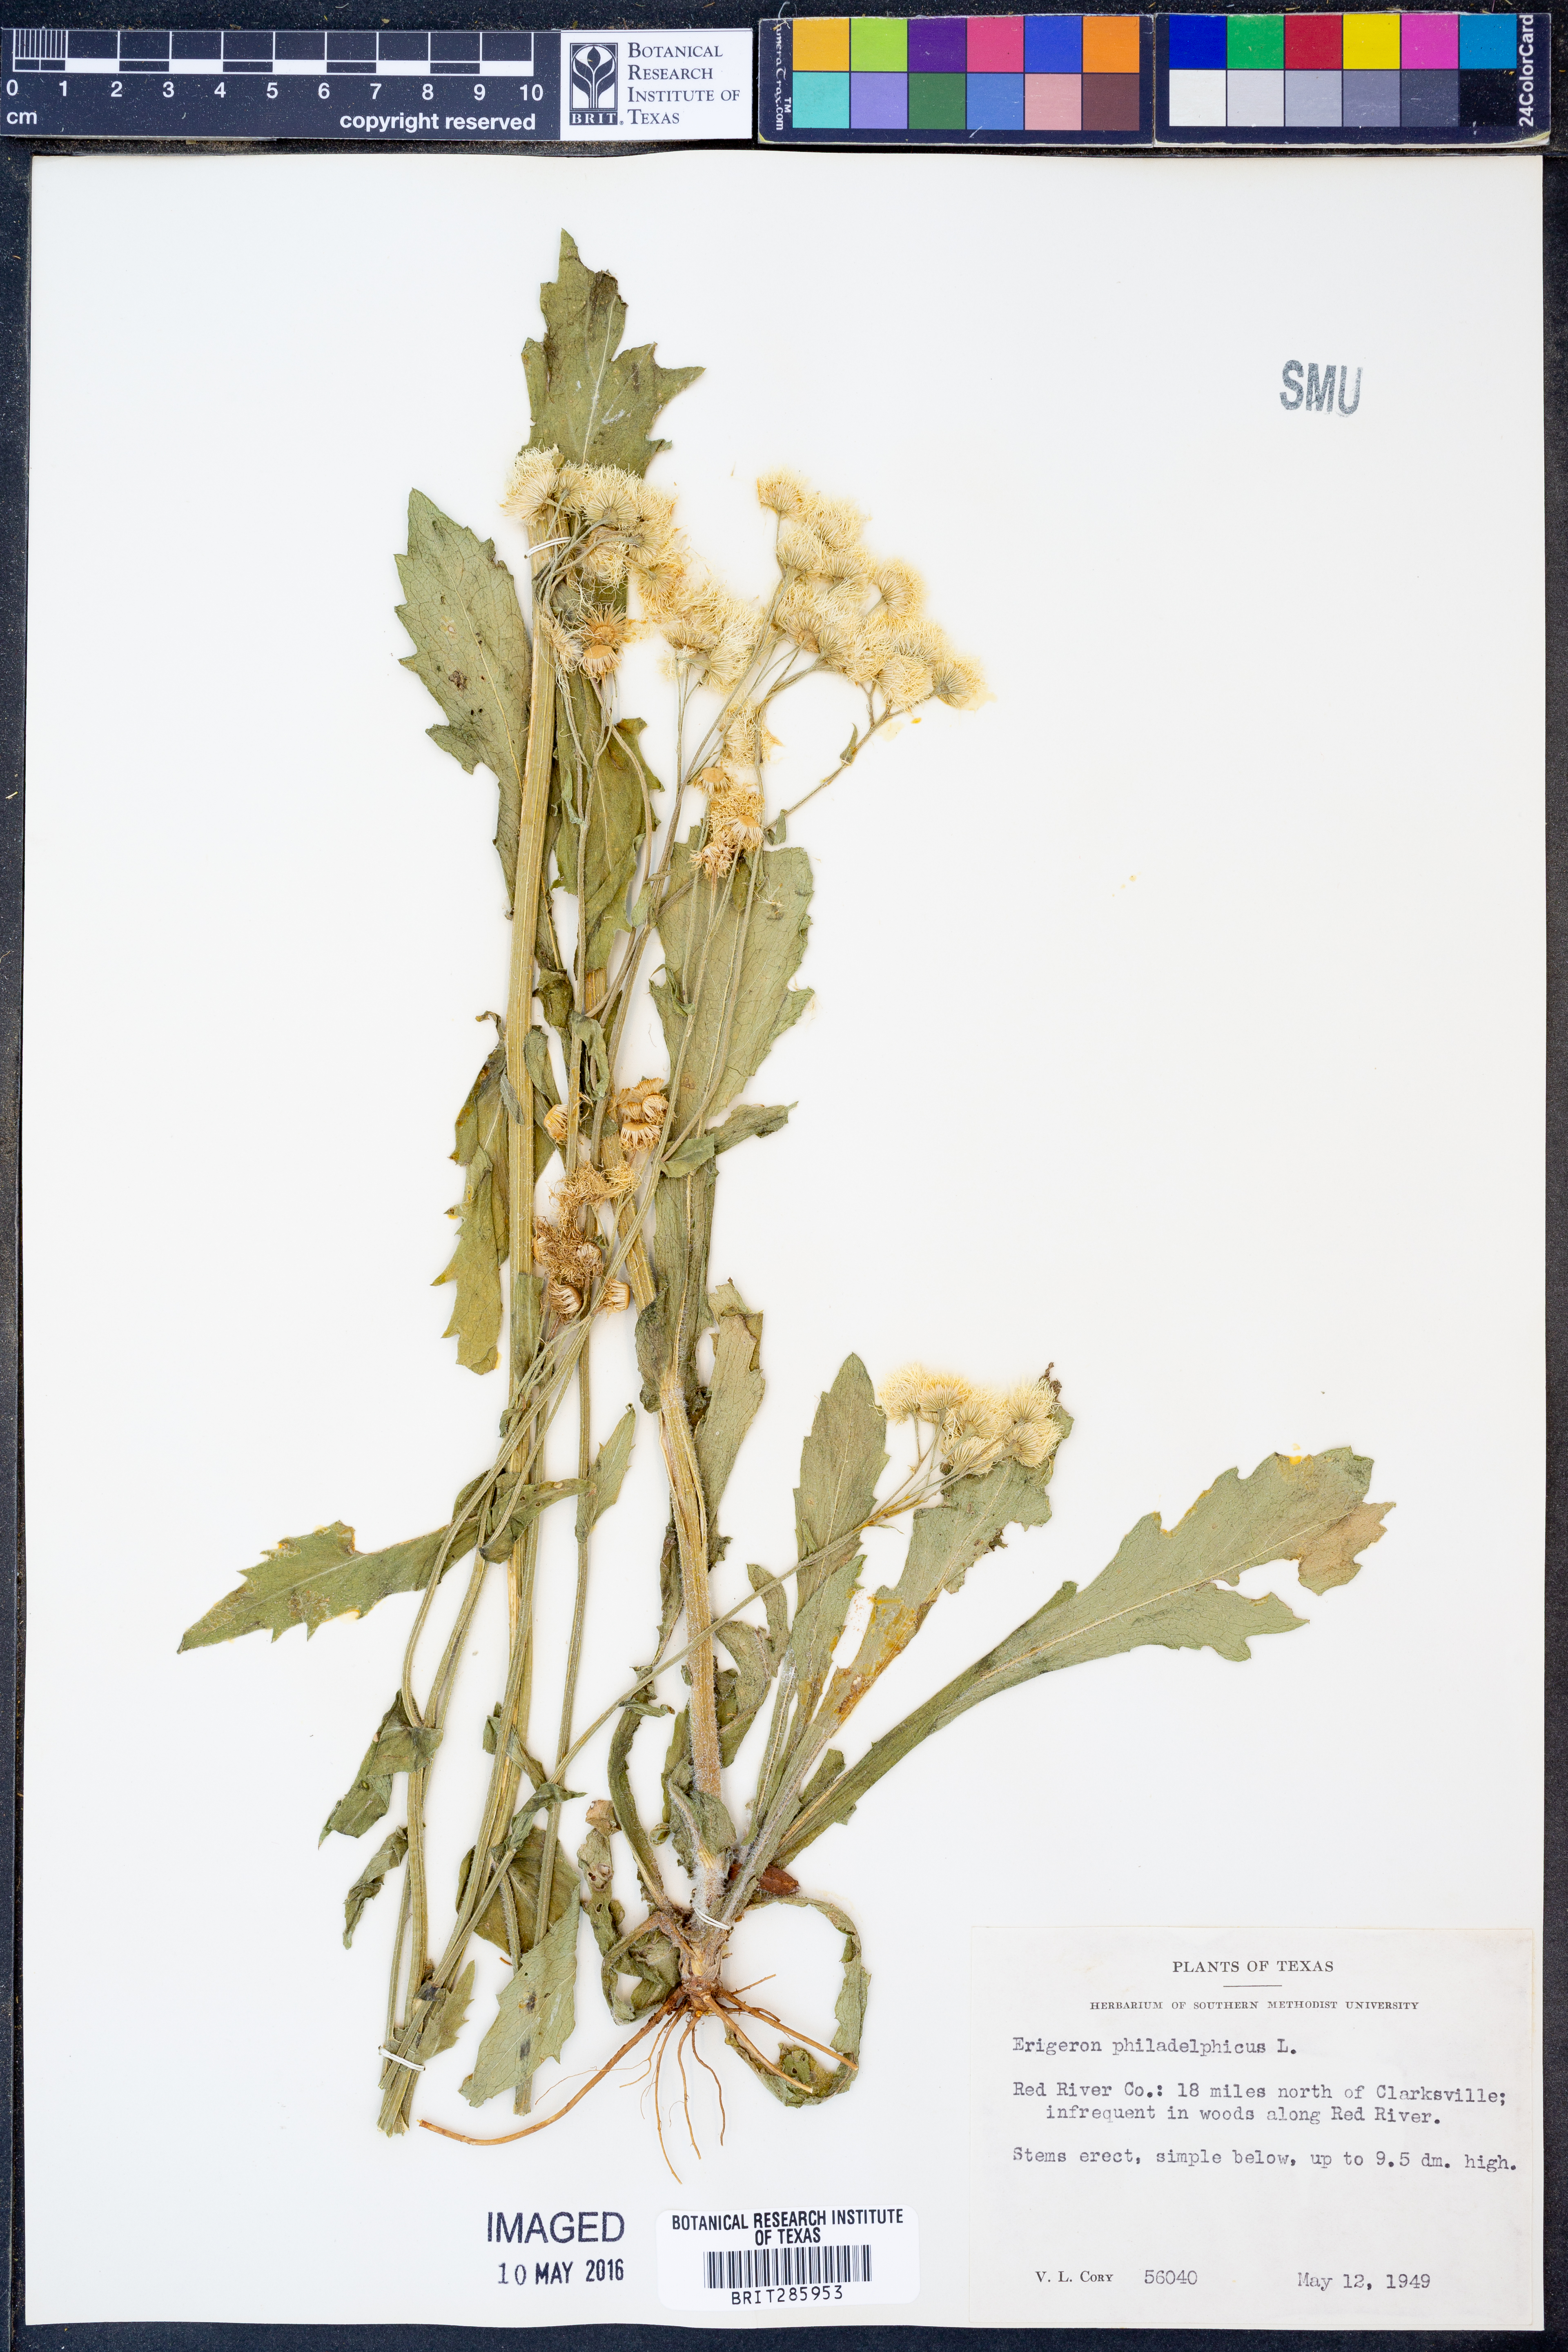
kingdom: Plantae
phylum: Tracheophyta
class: Magnoliopsida
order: Asterales
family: Asteraceae
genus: Erigeron
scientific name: Erigeron philadelphicus
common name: Robin's-plantain
